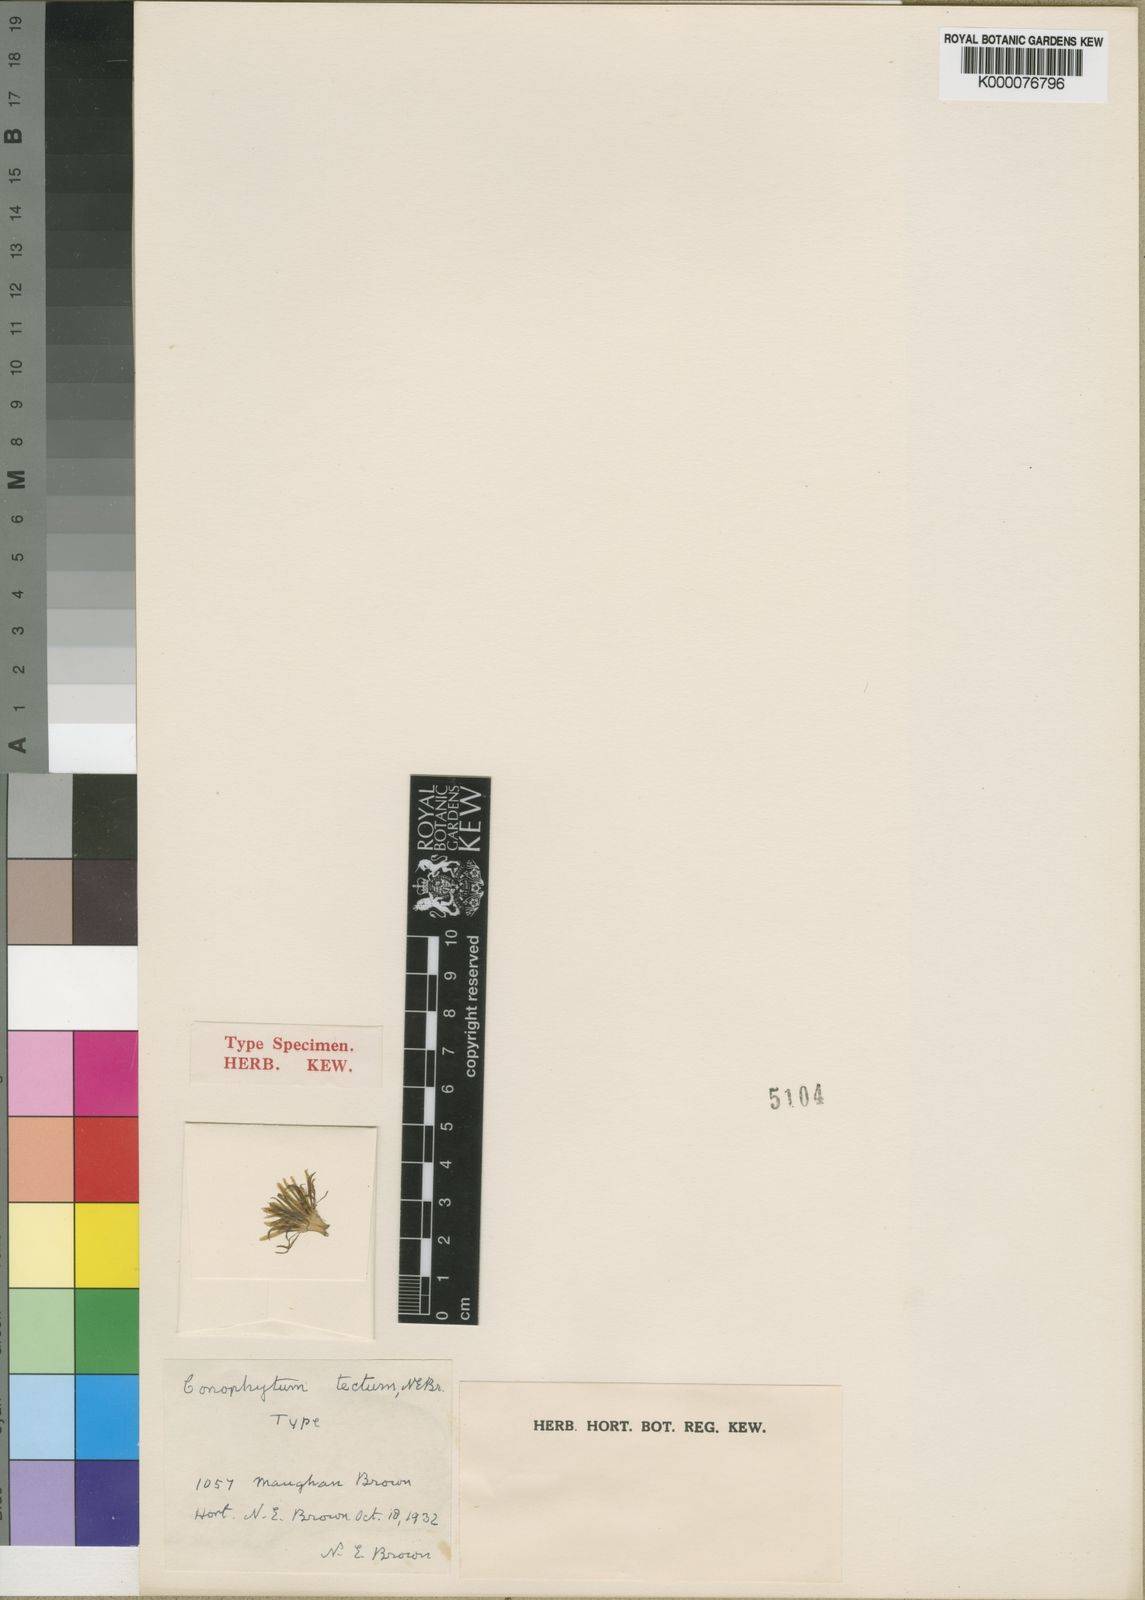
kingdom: Plantae
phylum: Tracheophyta
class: Magnoliopsida
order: Caryophyllales
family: Aizoaceae
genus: Conophytum
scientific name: Conophytum bilobum
